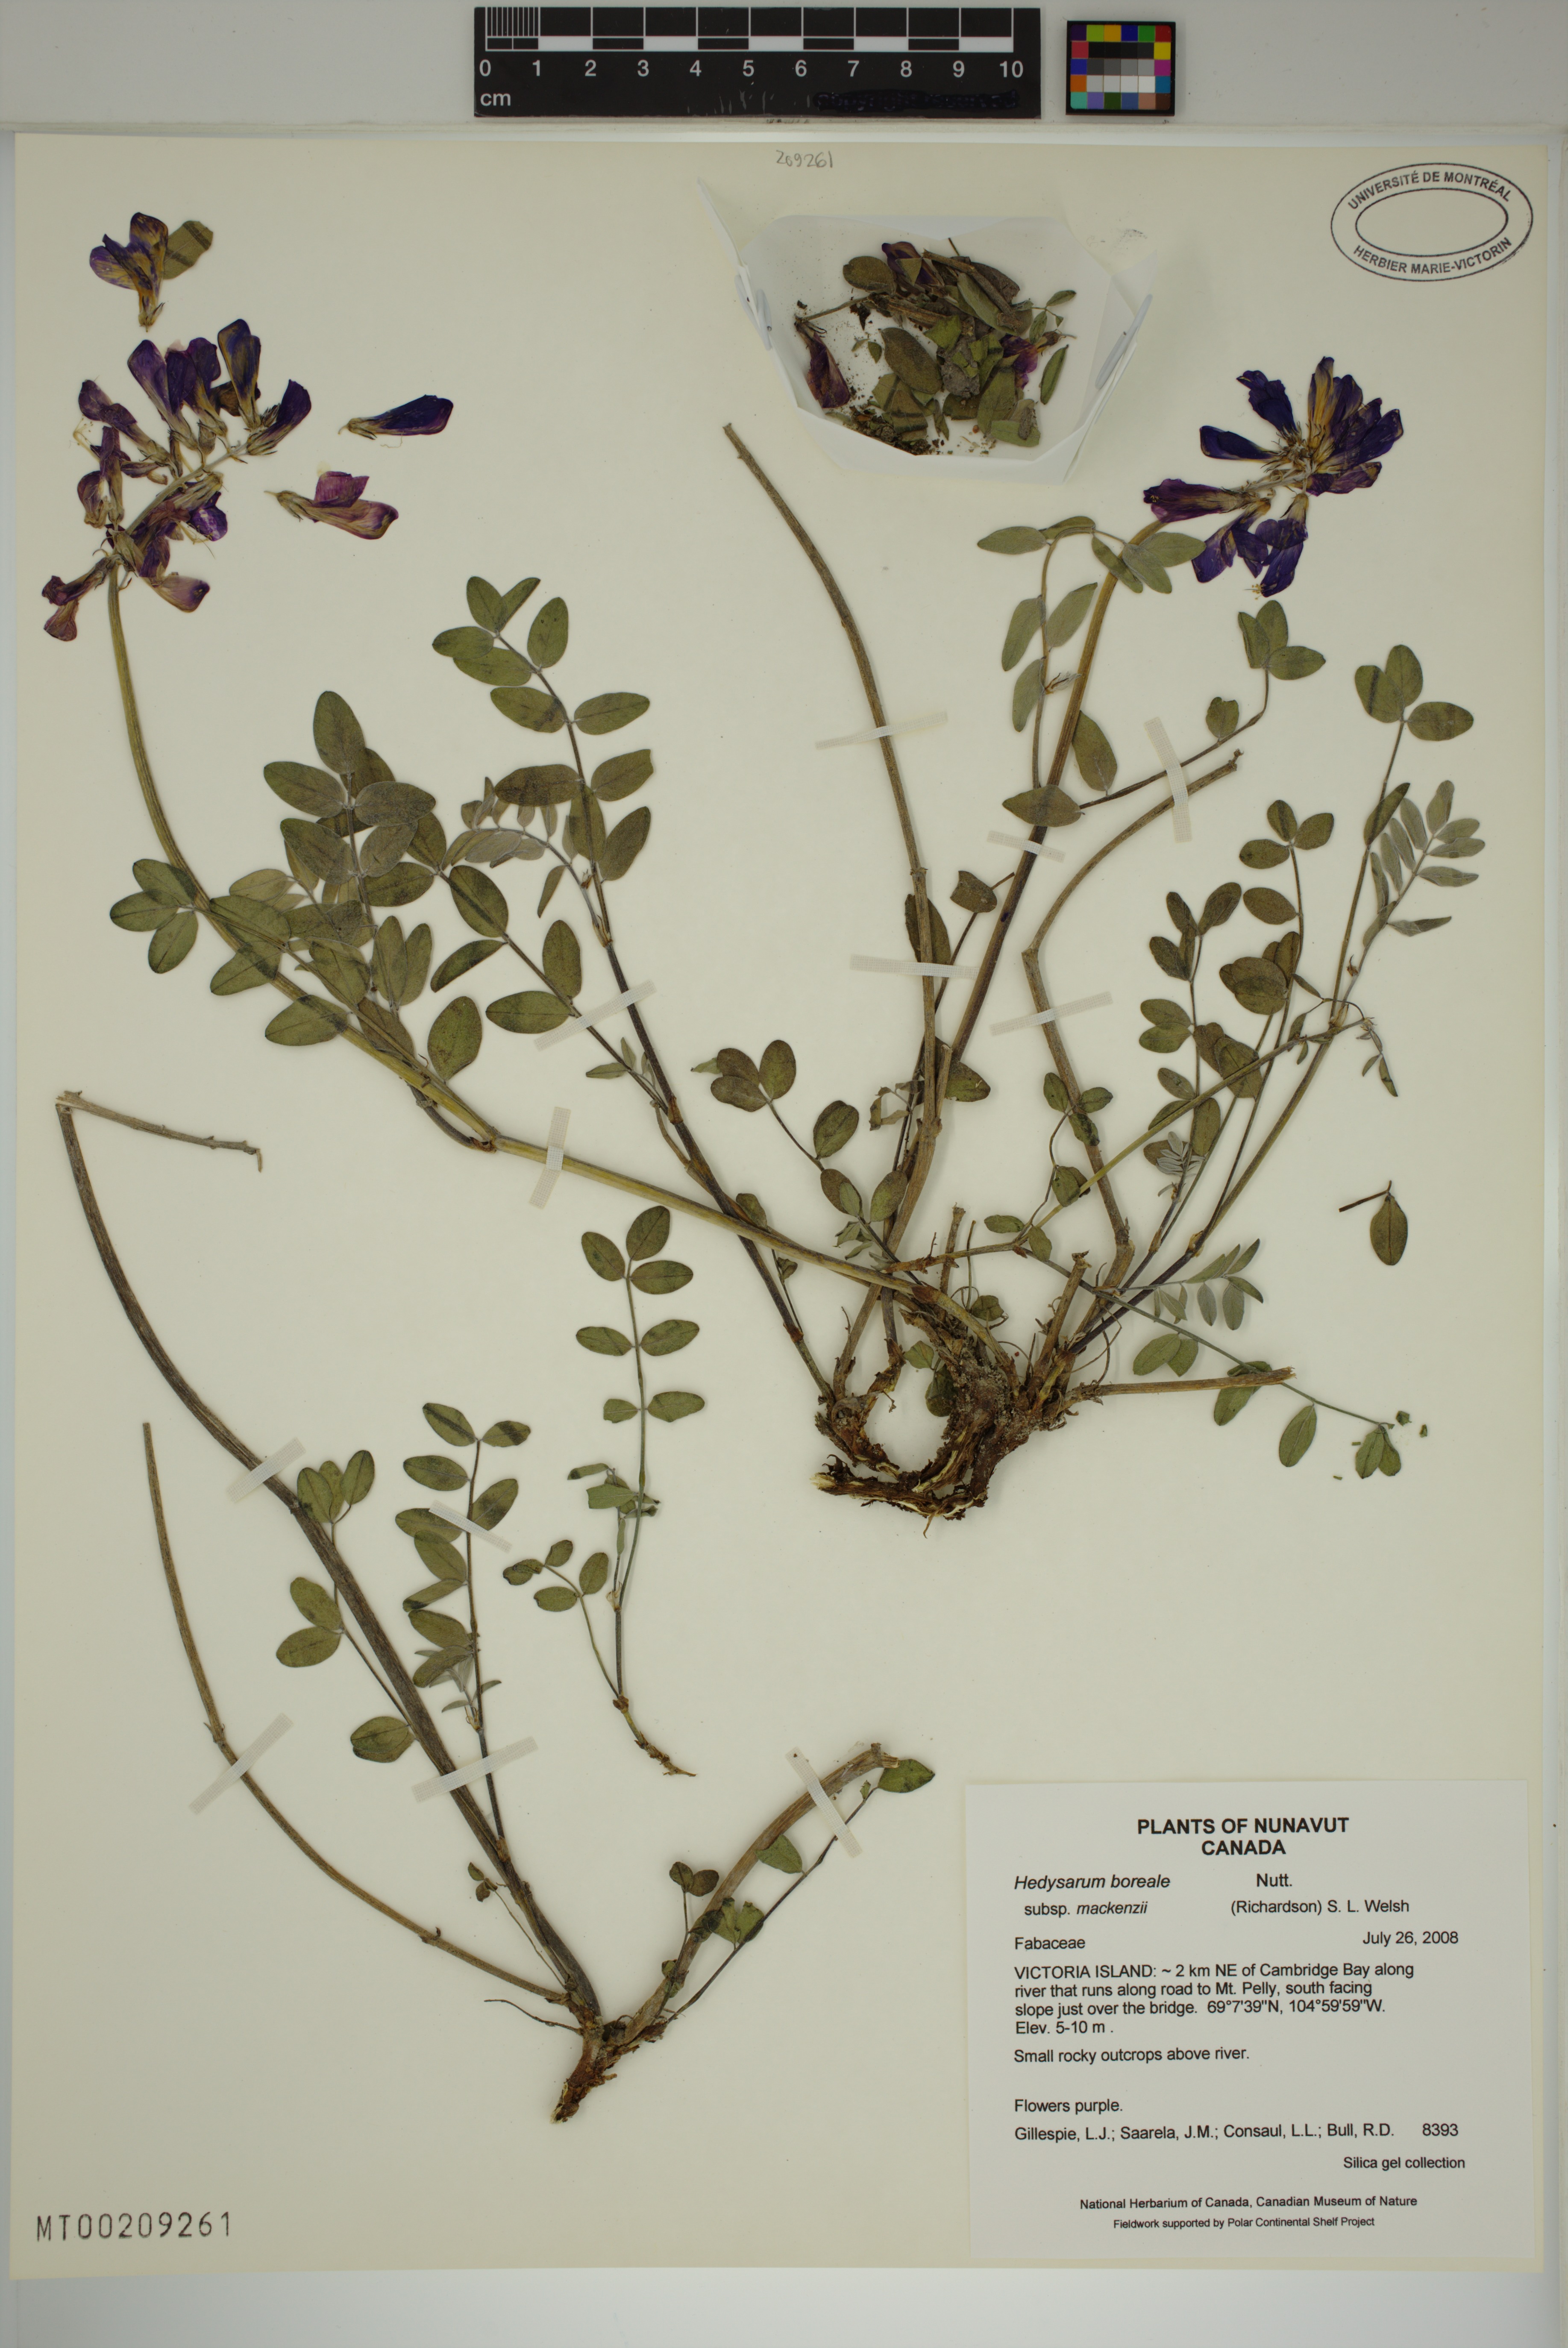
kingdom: Plantae
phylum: Tracheophyta
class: Magnoliopsida
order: Fabales
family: Fabaceae
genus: Hedysarum
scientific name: Hedysarum boreale
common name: Northern sweet-vetch
